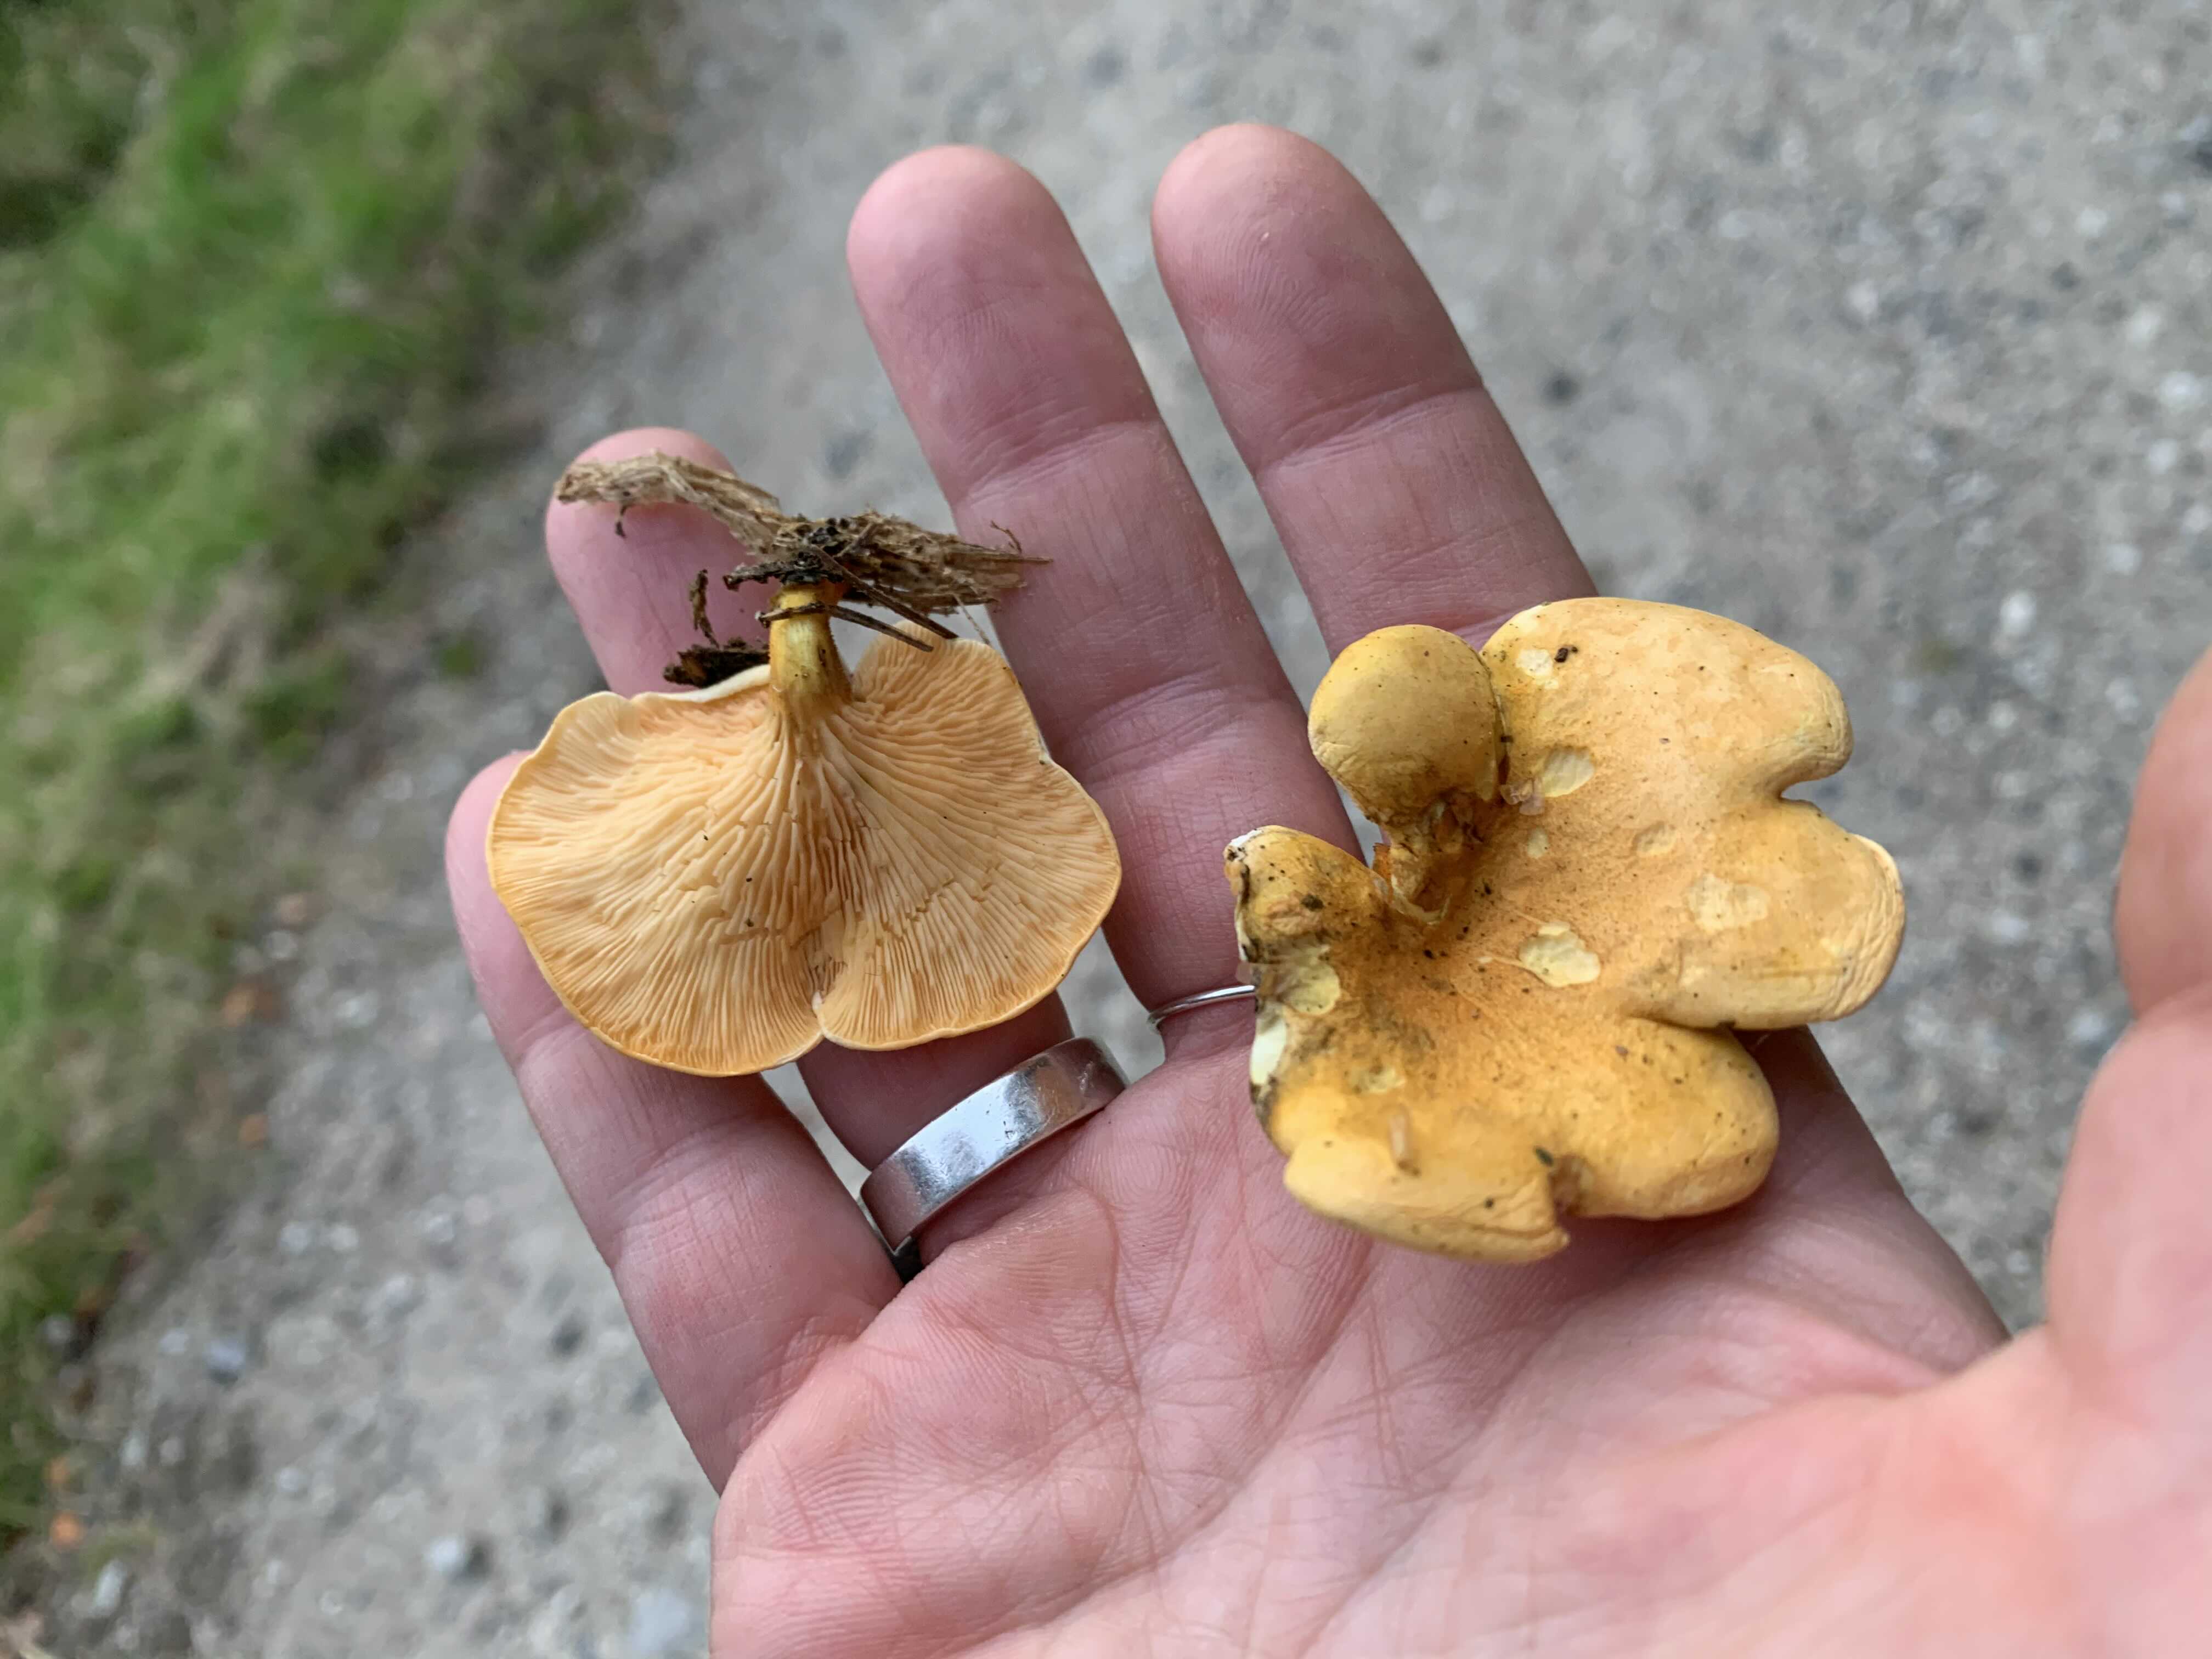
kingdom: Fungi
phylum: Basidiomycota
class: Agaricomycetes
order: Boletales
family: Hygrophoropsidaceae
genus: Hygrophoropsis
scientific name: Hygrophoropsis aurantiaca
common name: almindelig orangekantarel
